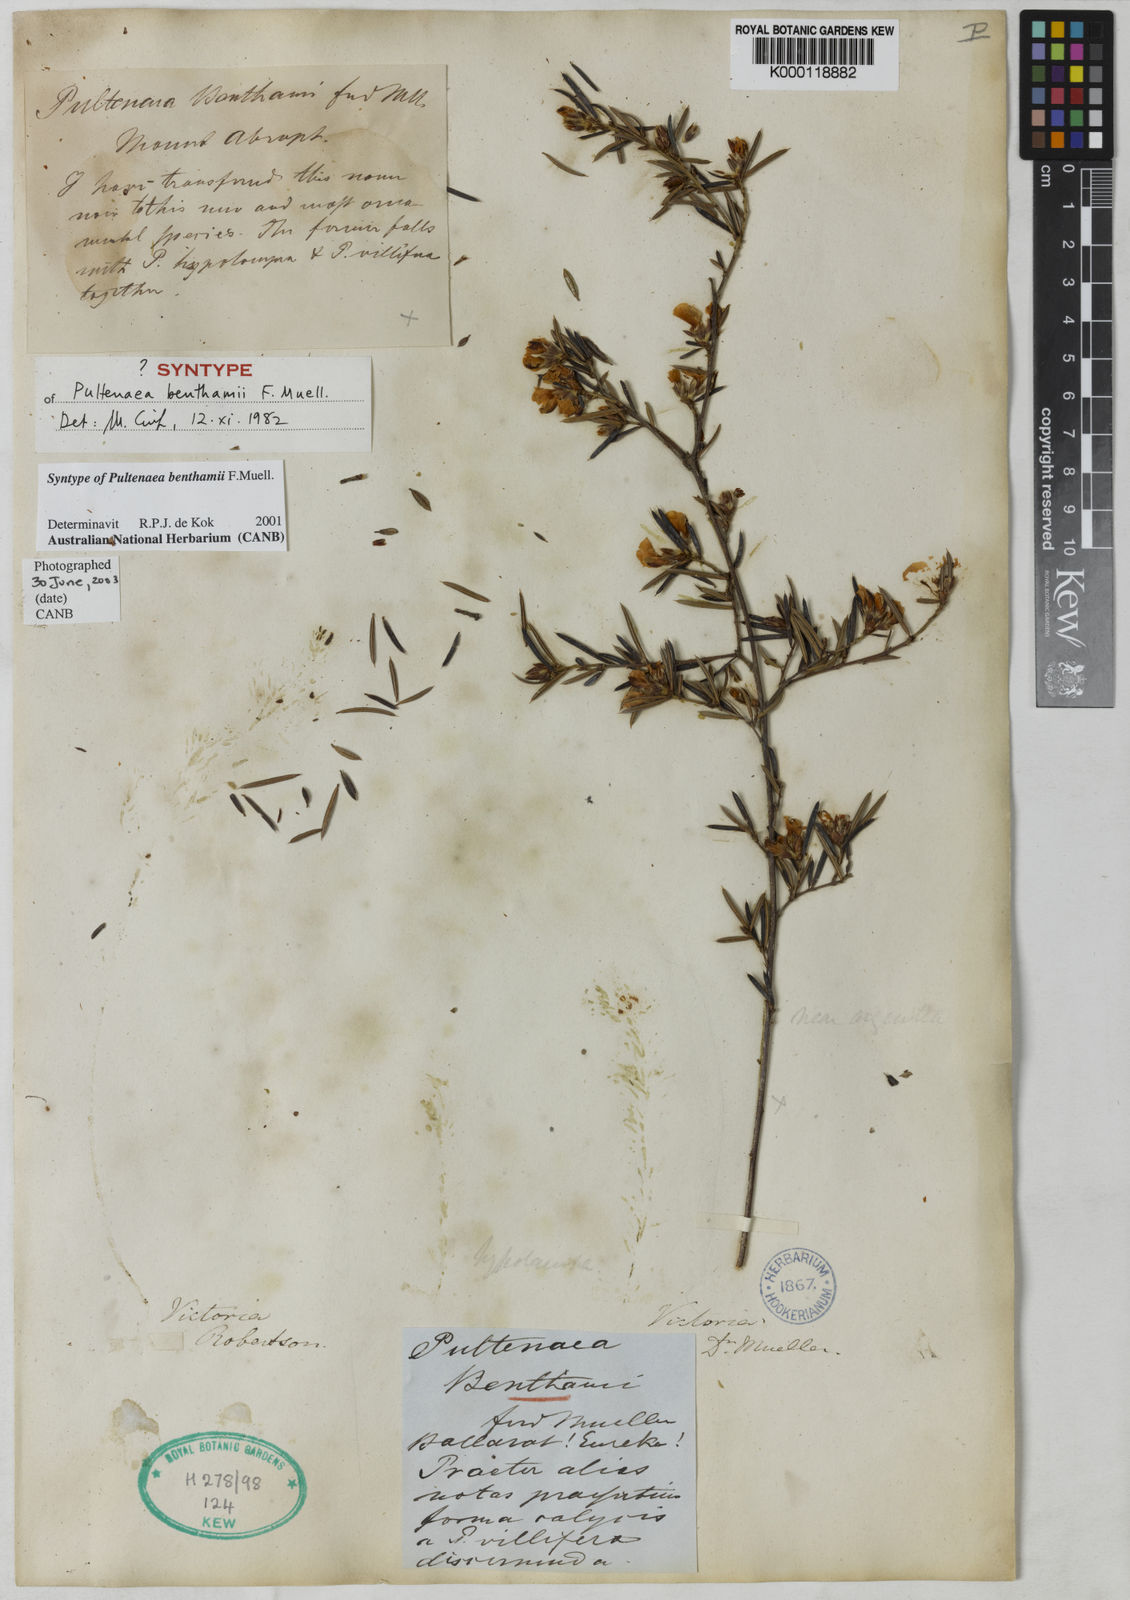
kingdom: Plantae
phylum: Tracheophyta
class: Magnoliopsida
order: Fabales
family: Fabaceae
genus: Pultenaea
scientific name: Pultenaea benthamii
